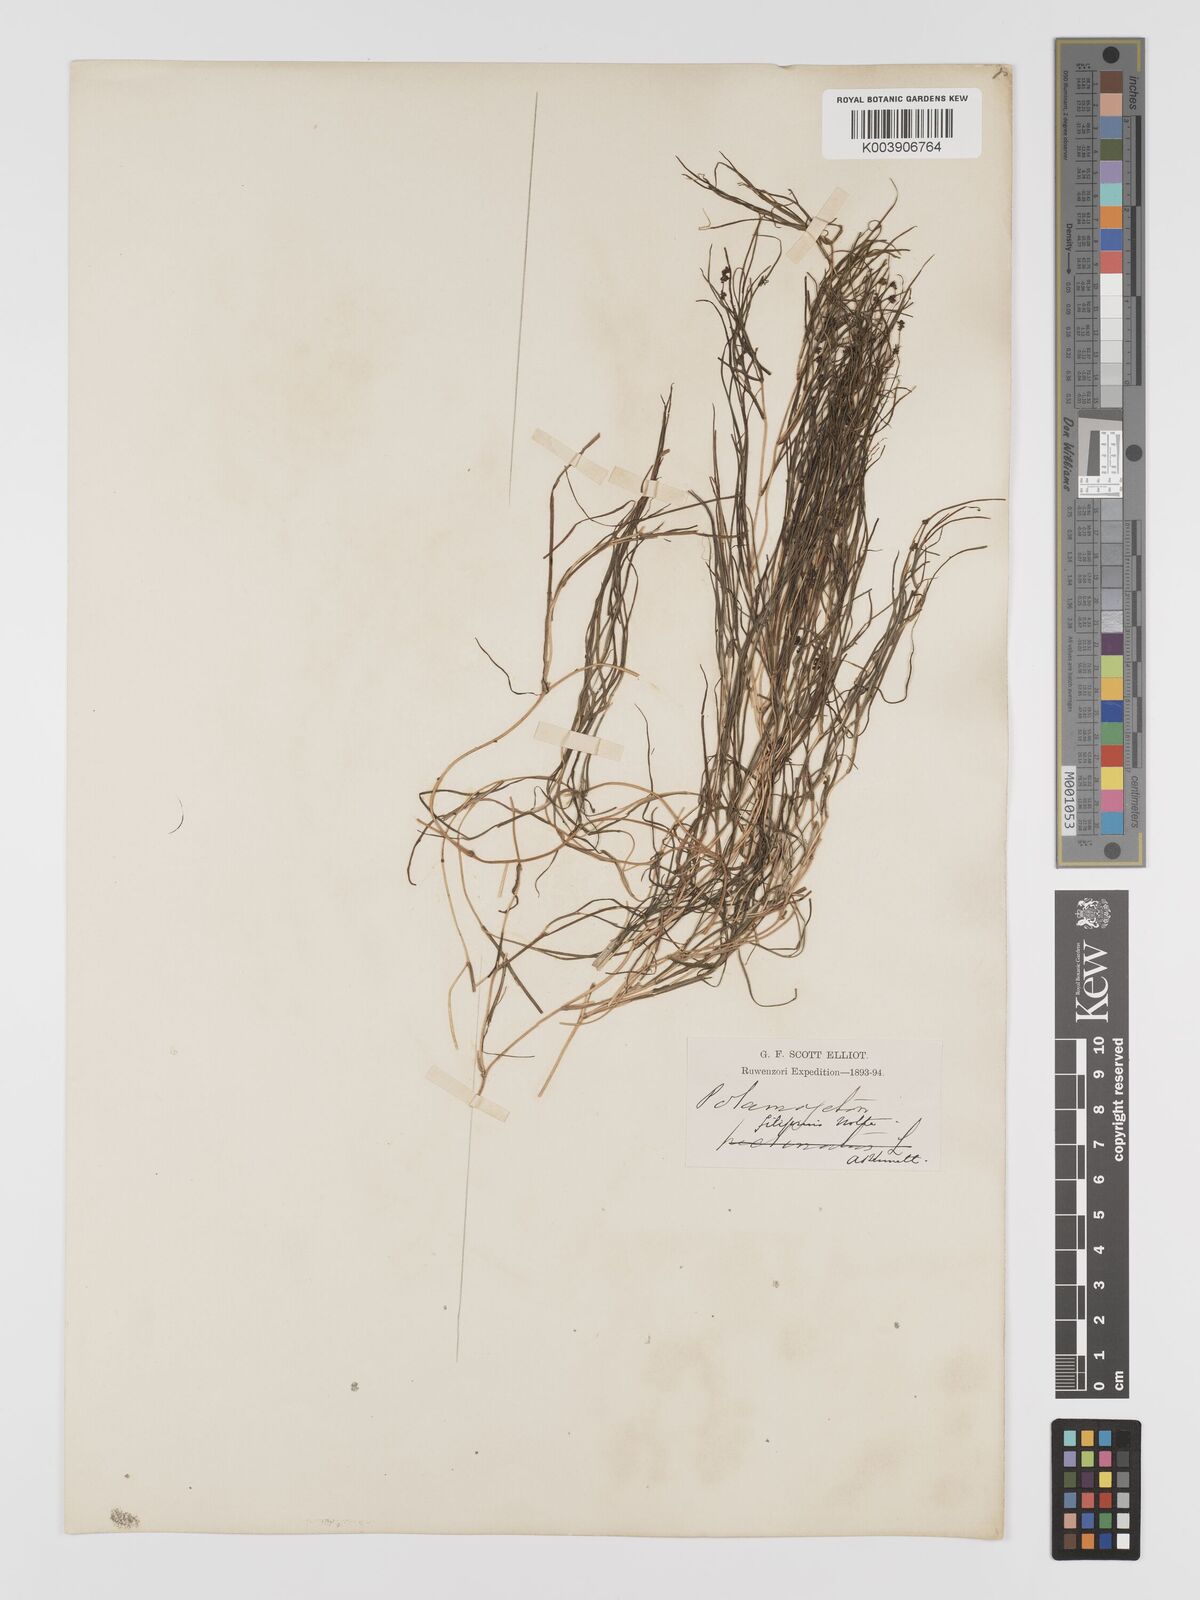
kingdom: Plantae
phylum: Tracheophyta
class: Liliopsida
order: Alismatales
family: Potamogetonaceae
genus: Stuckenia
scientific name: Stuckenia pectinata
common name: Sago pondweed
